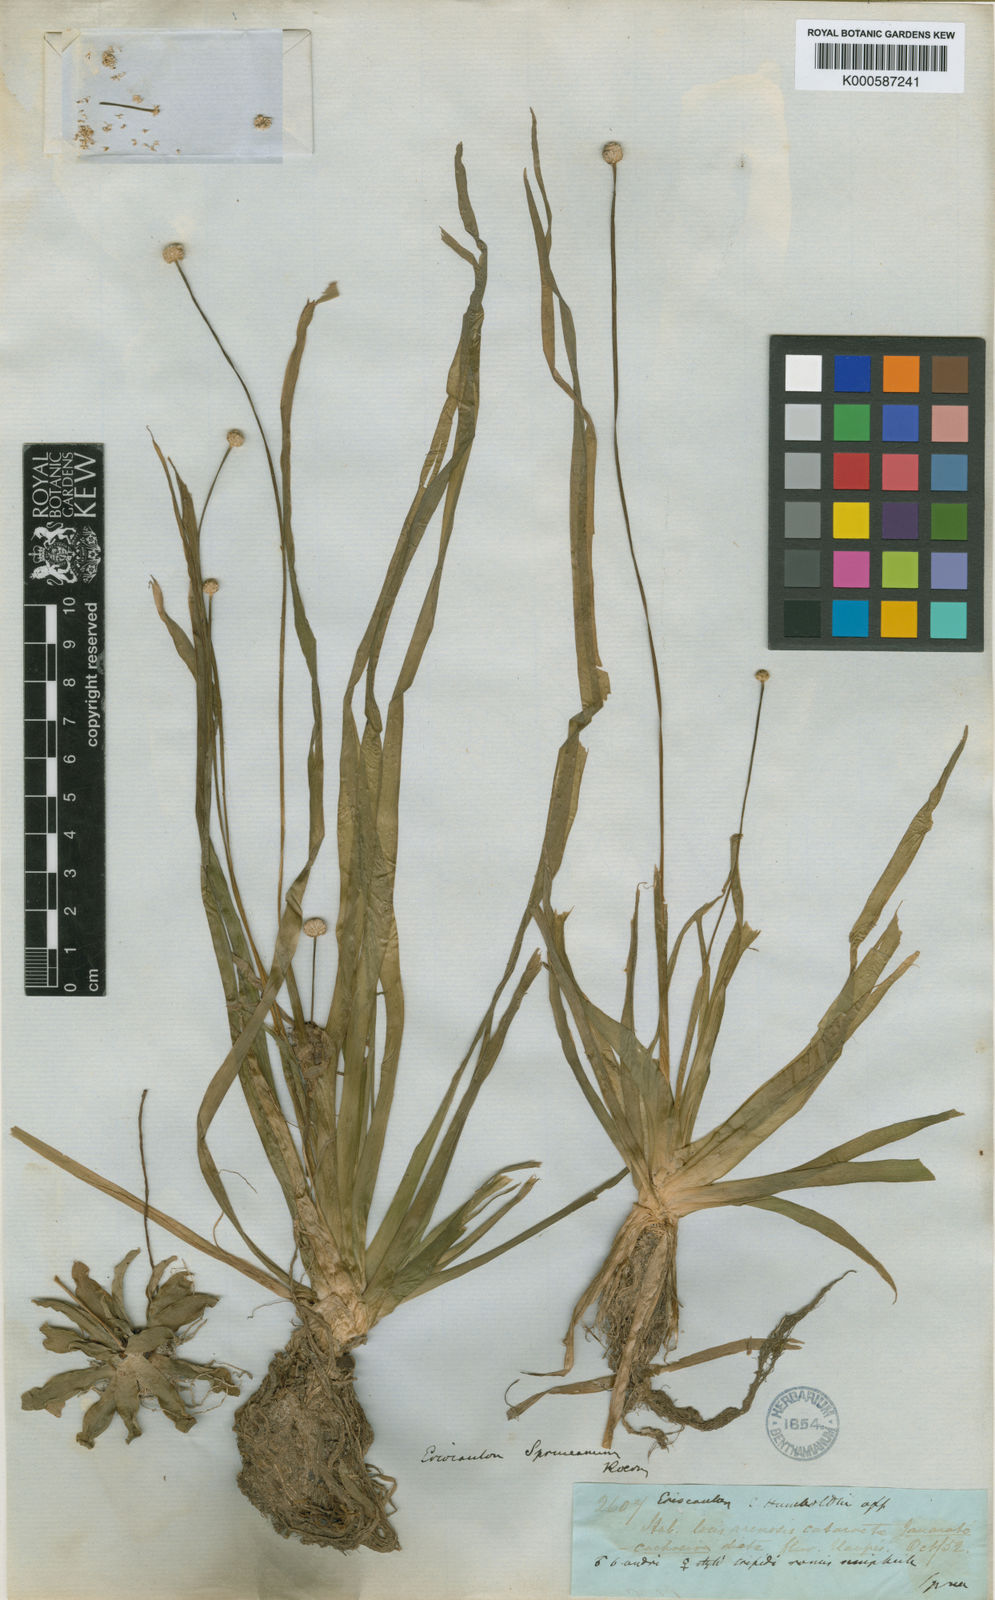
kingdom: Plantae
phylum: Tracheophyta
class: Liliopsida
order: Poales
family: Eriocaulaceae
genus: Eriocaulon
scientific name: Eriocaulon
